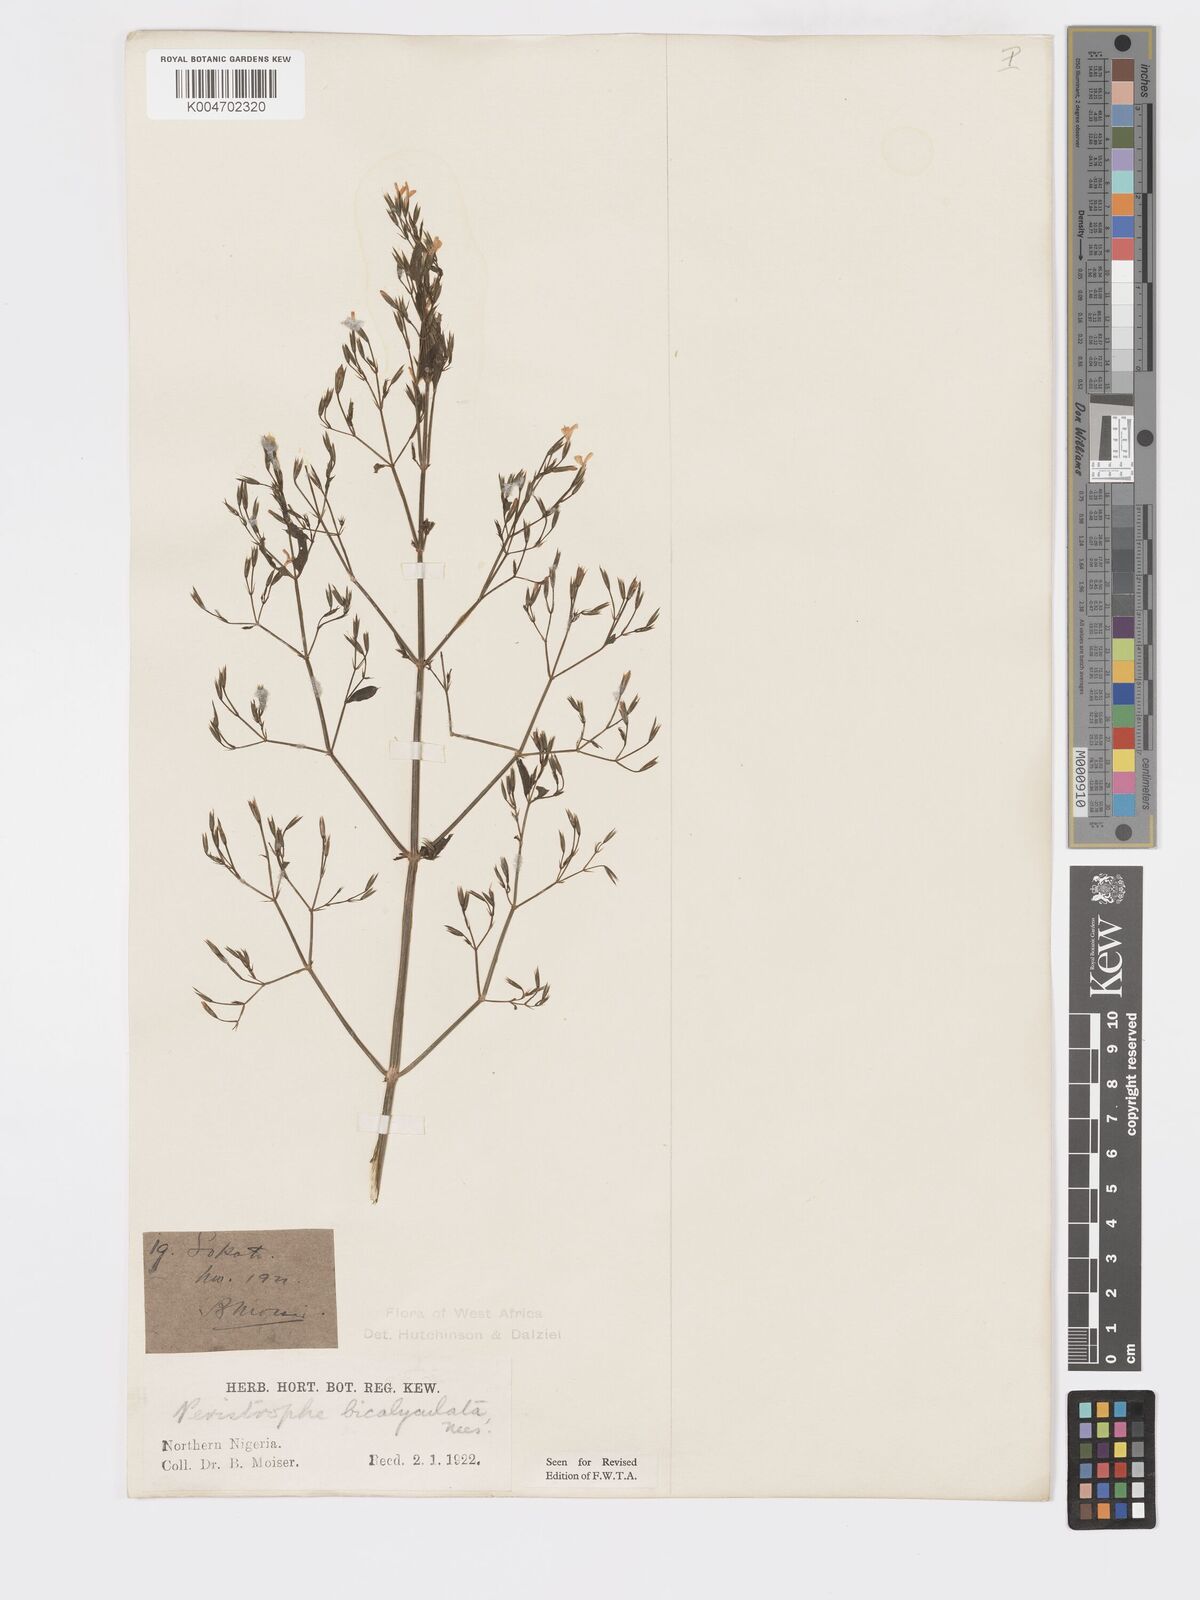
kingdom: Plantae
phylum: Tracheophyta
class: Magnoliopsida
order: Lamiales
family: Acanthaceae
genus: Dicliptera
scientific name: Dicliptera paniculata
